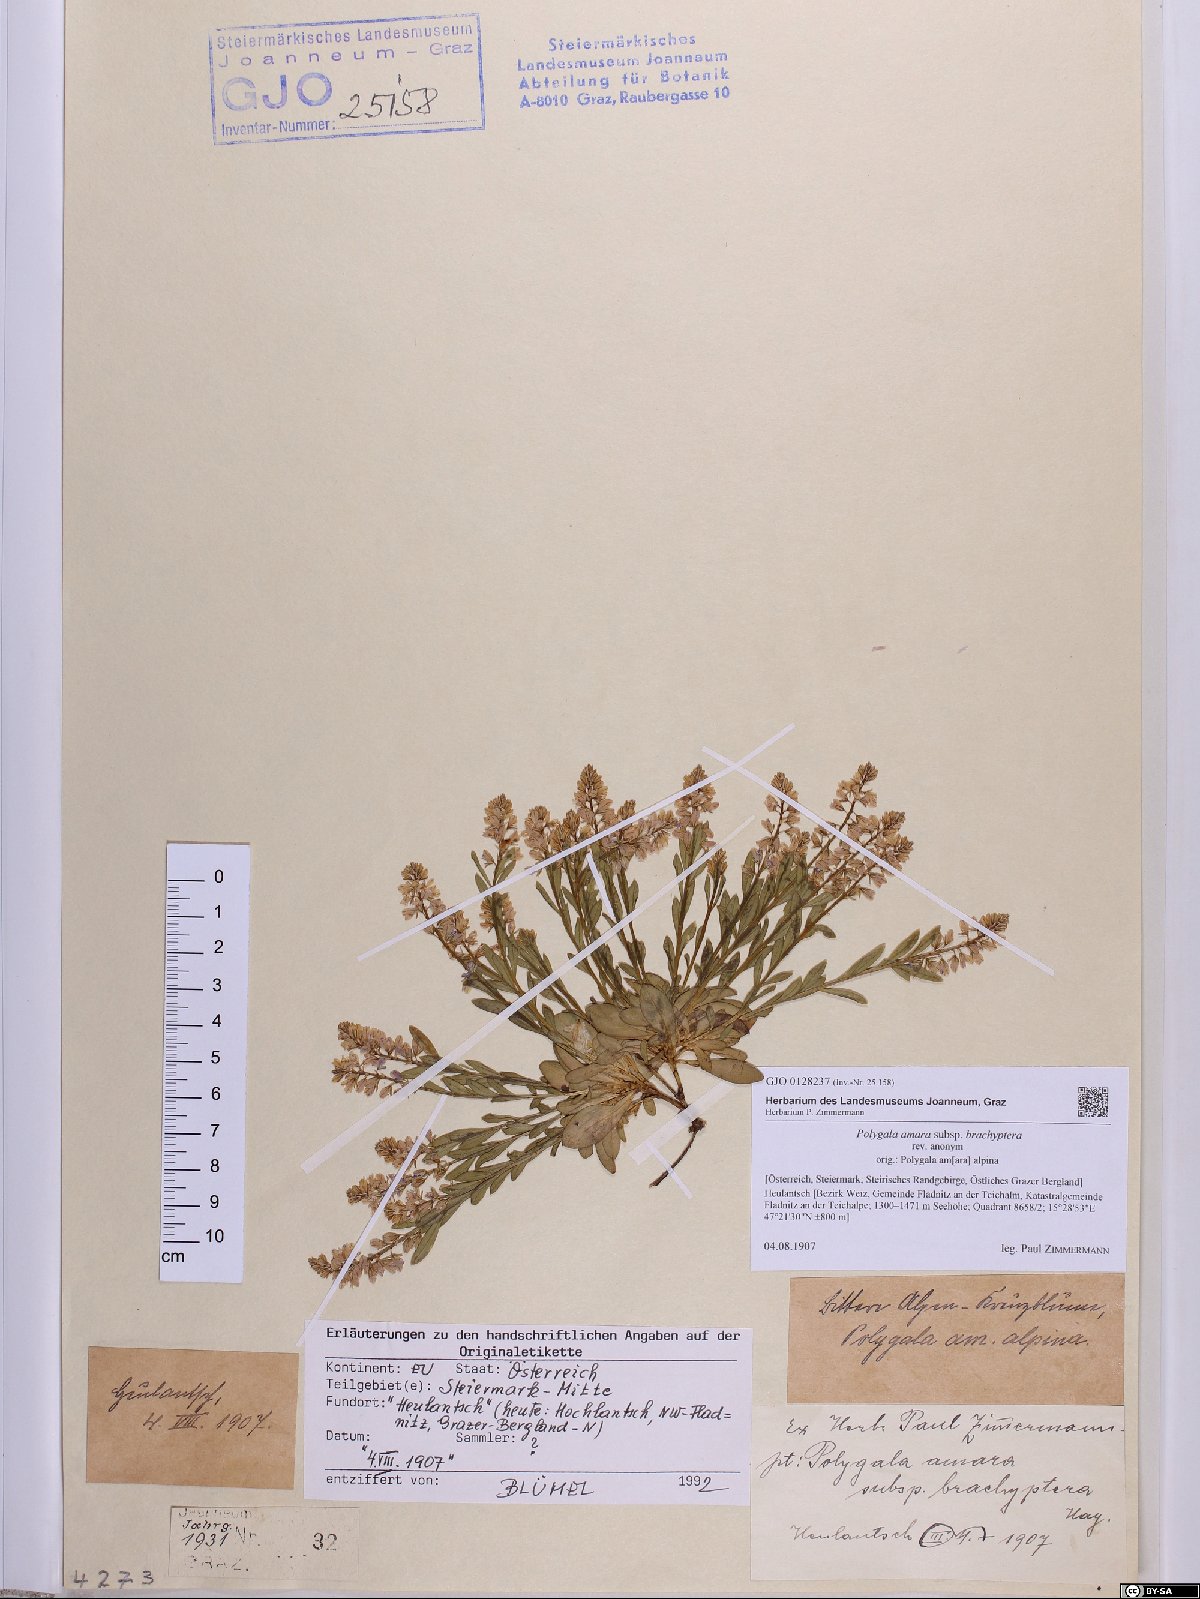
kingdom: Plantae
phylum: Tracheophyta
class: Magnoliopsida
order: Fabales
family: Polygalaceae
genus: Polygala
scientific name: Polygala amara
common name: Milkwort
